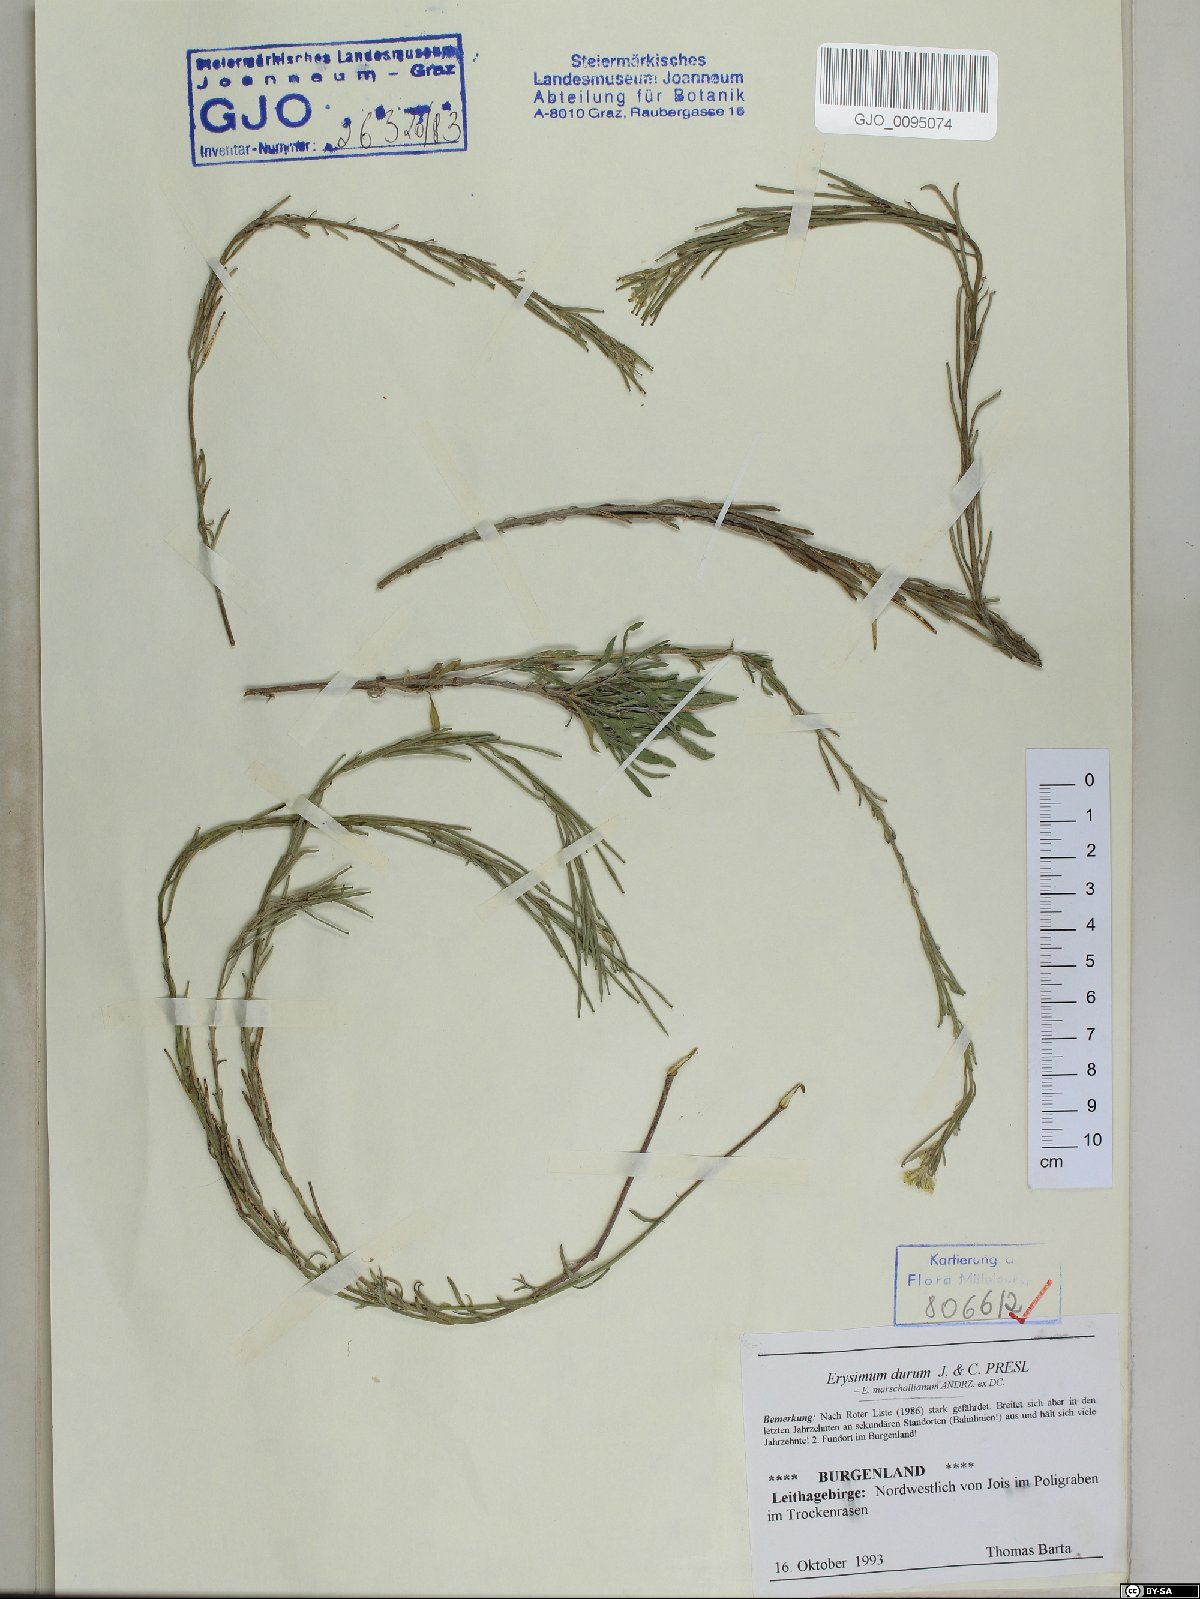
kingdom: Plantae
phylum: Tracheophyta
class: Magnoliopsida
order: Brassicales
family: Brassicaceae
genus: Erysimum
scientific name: Erysimum marschallianum
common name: Hard wallflower
